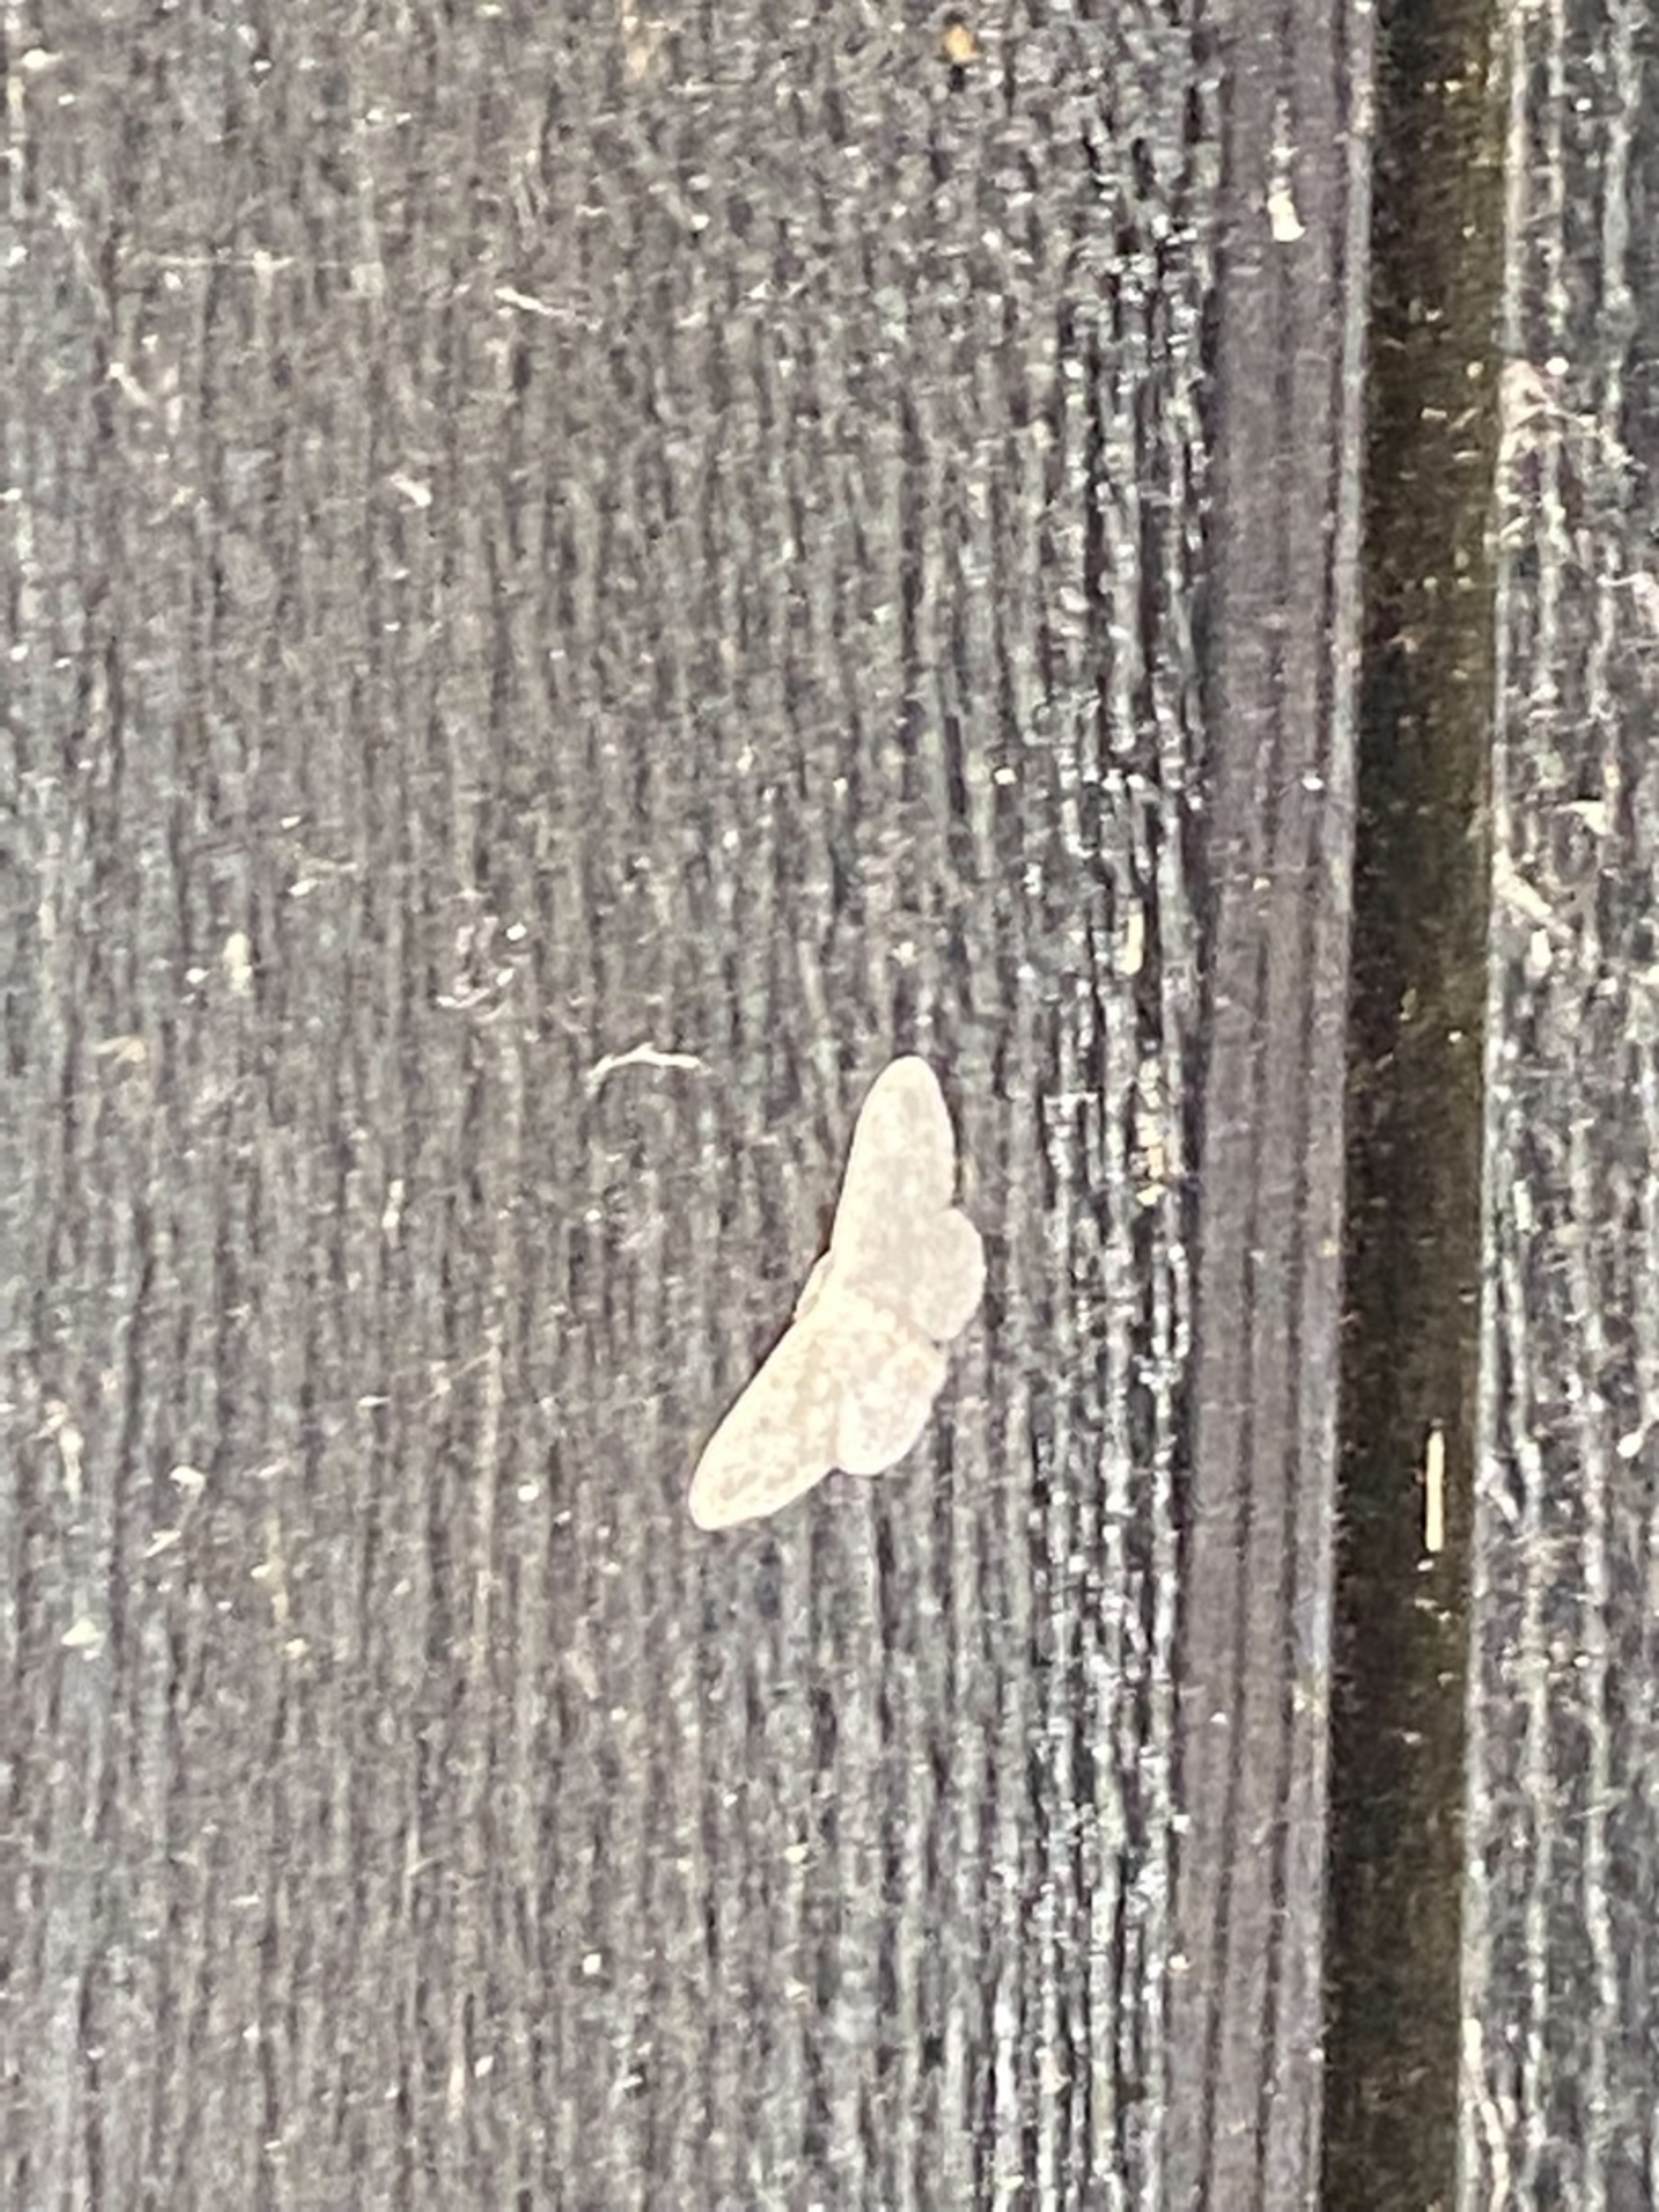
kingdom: Animalia
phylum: Arthropoda
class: Insecta
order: Lepidoptera
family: Geometridae
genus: Hydrelia
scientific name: Hydrelia flammeolaria
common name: Gulflammet bladmåler
